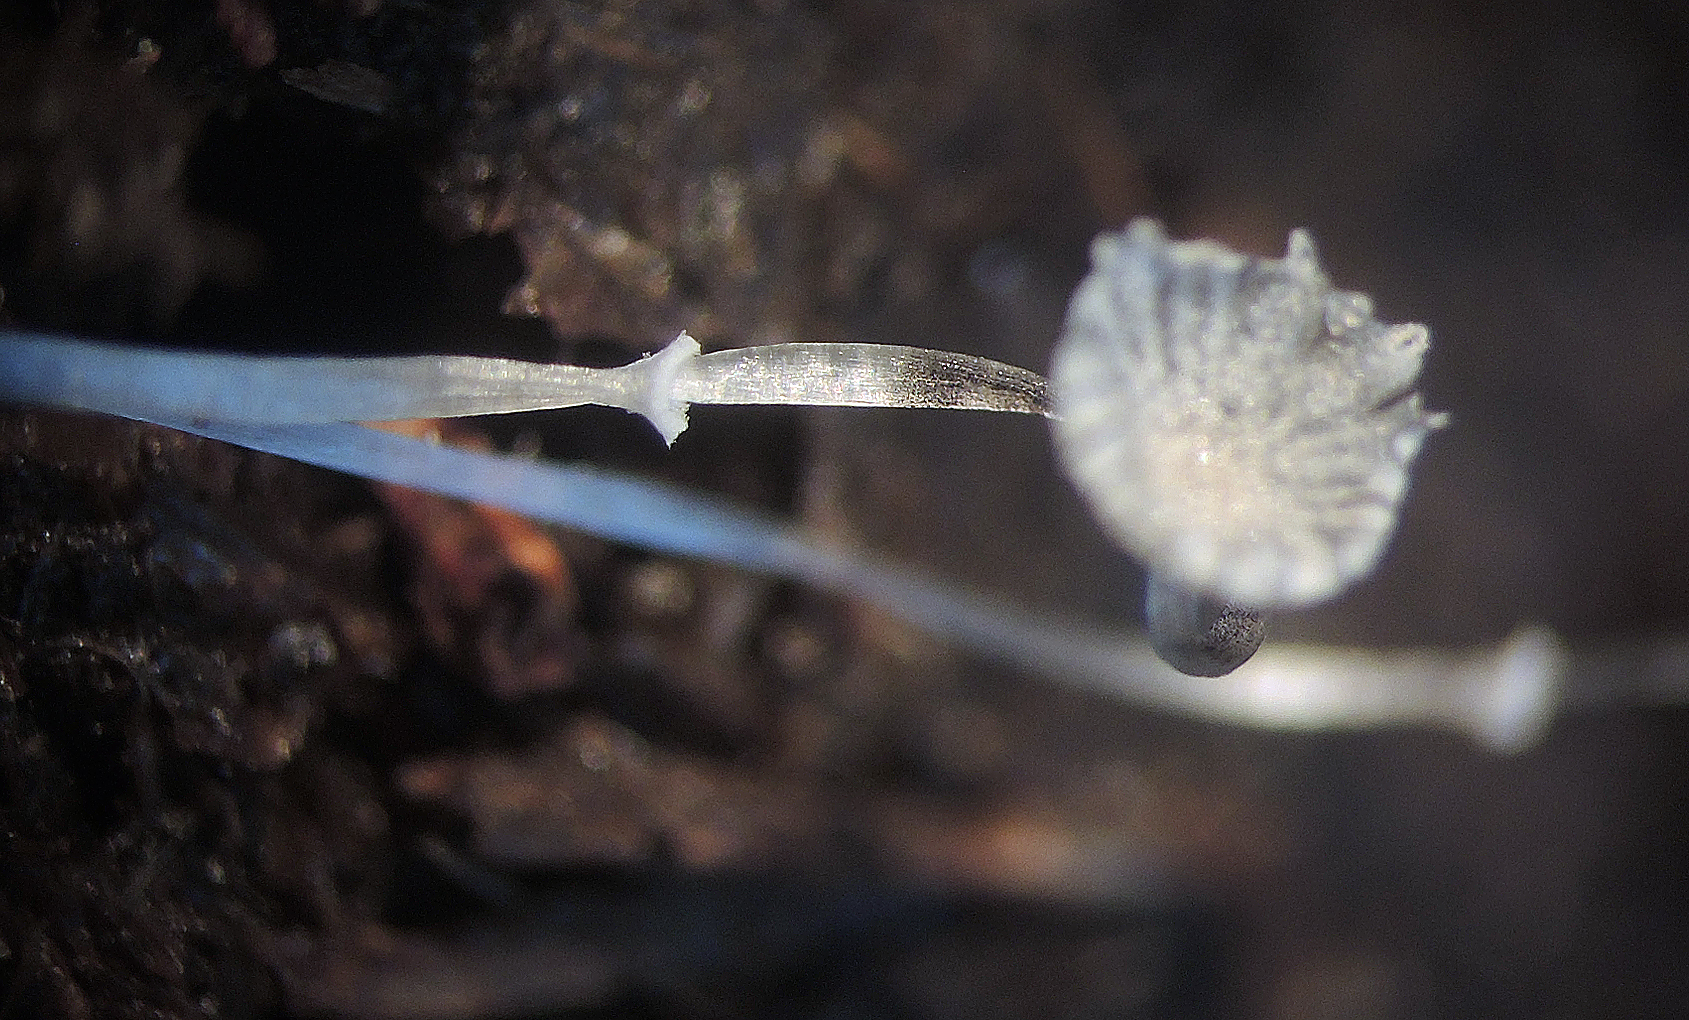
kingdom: Fungi
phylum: Basidiomycota
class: Agaricomycetes
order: Agaricales
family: Psathyrellaceae
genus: Narcissea
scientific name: Narcissea ephemeroides
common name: ring-blækhat
